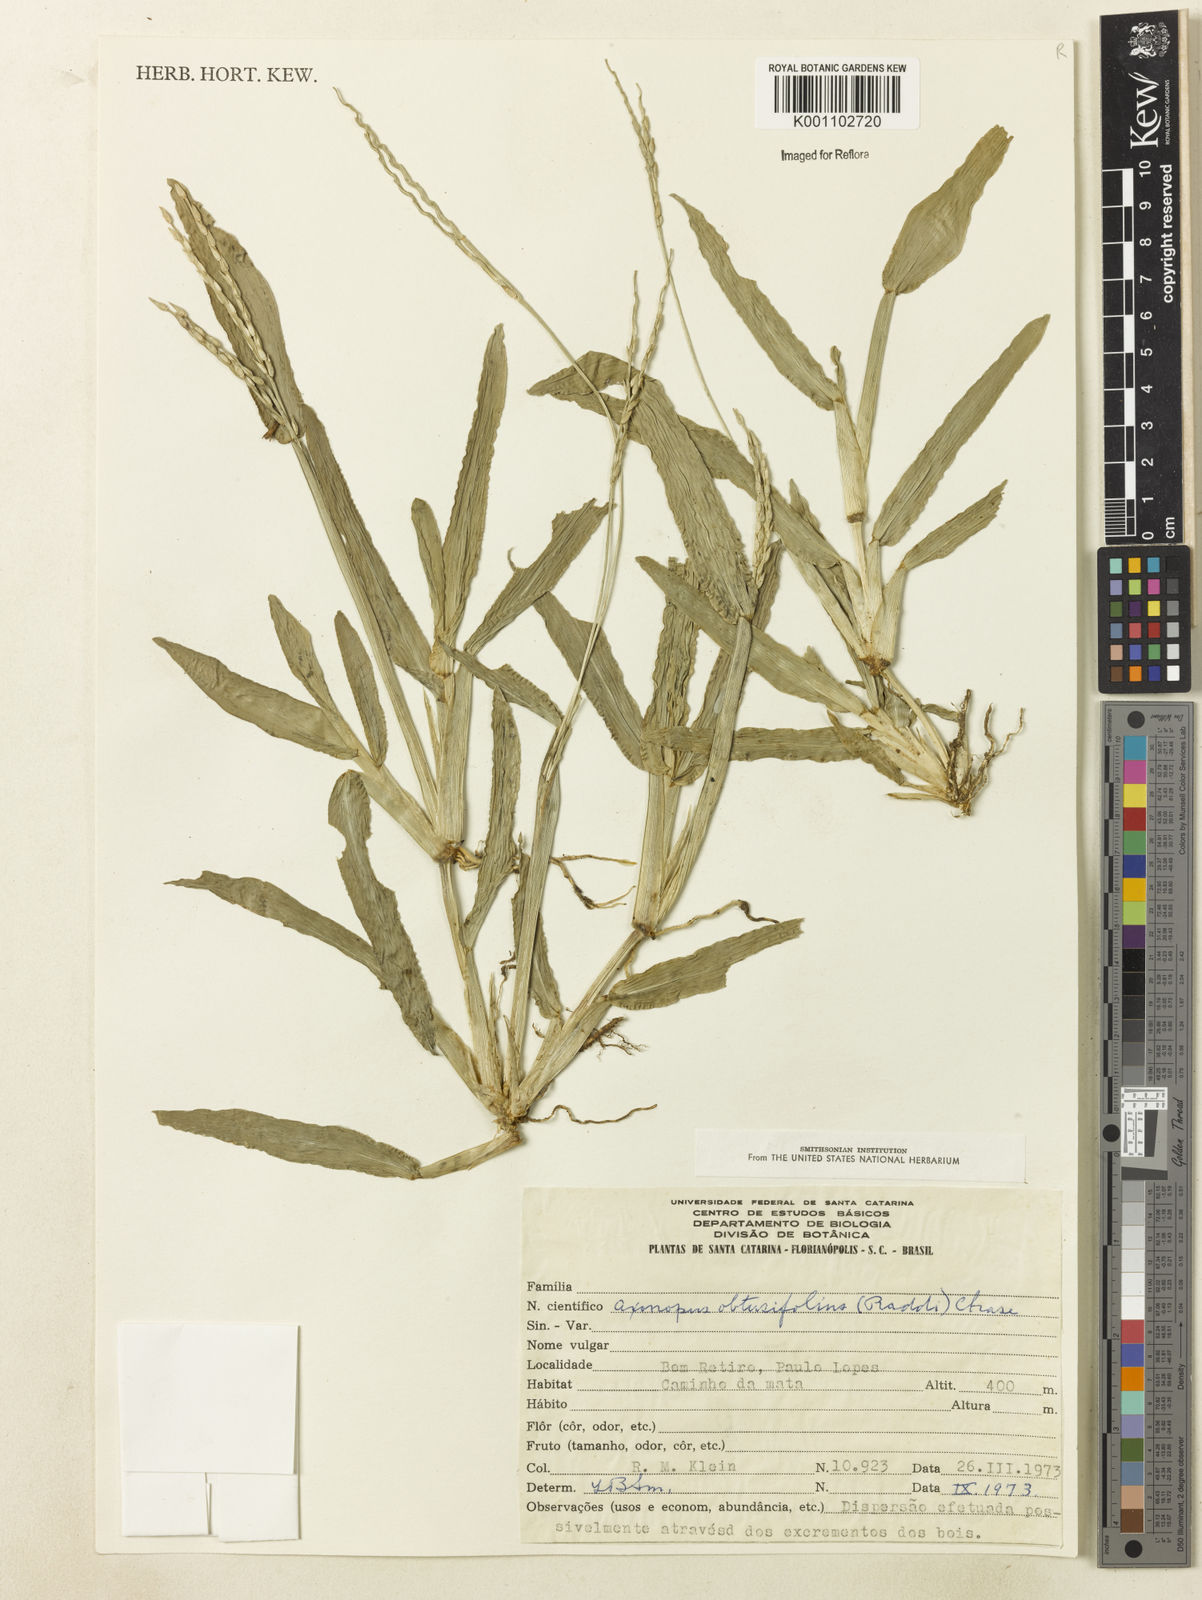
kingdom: Plantae
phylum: Tracheophyta
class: Liliopsida
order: Poales
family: Poaceae
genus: Axonopus
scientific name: Axonopus furcatus
